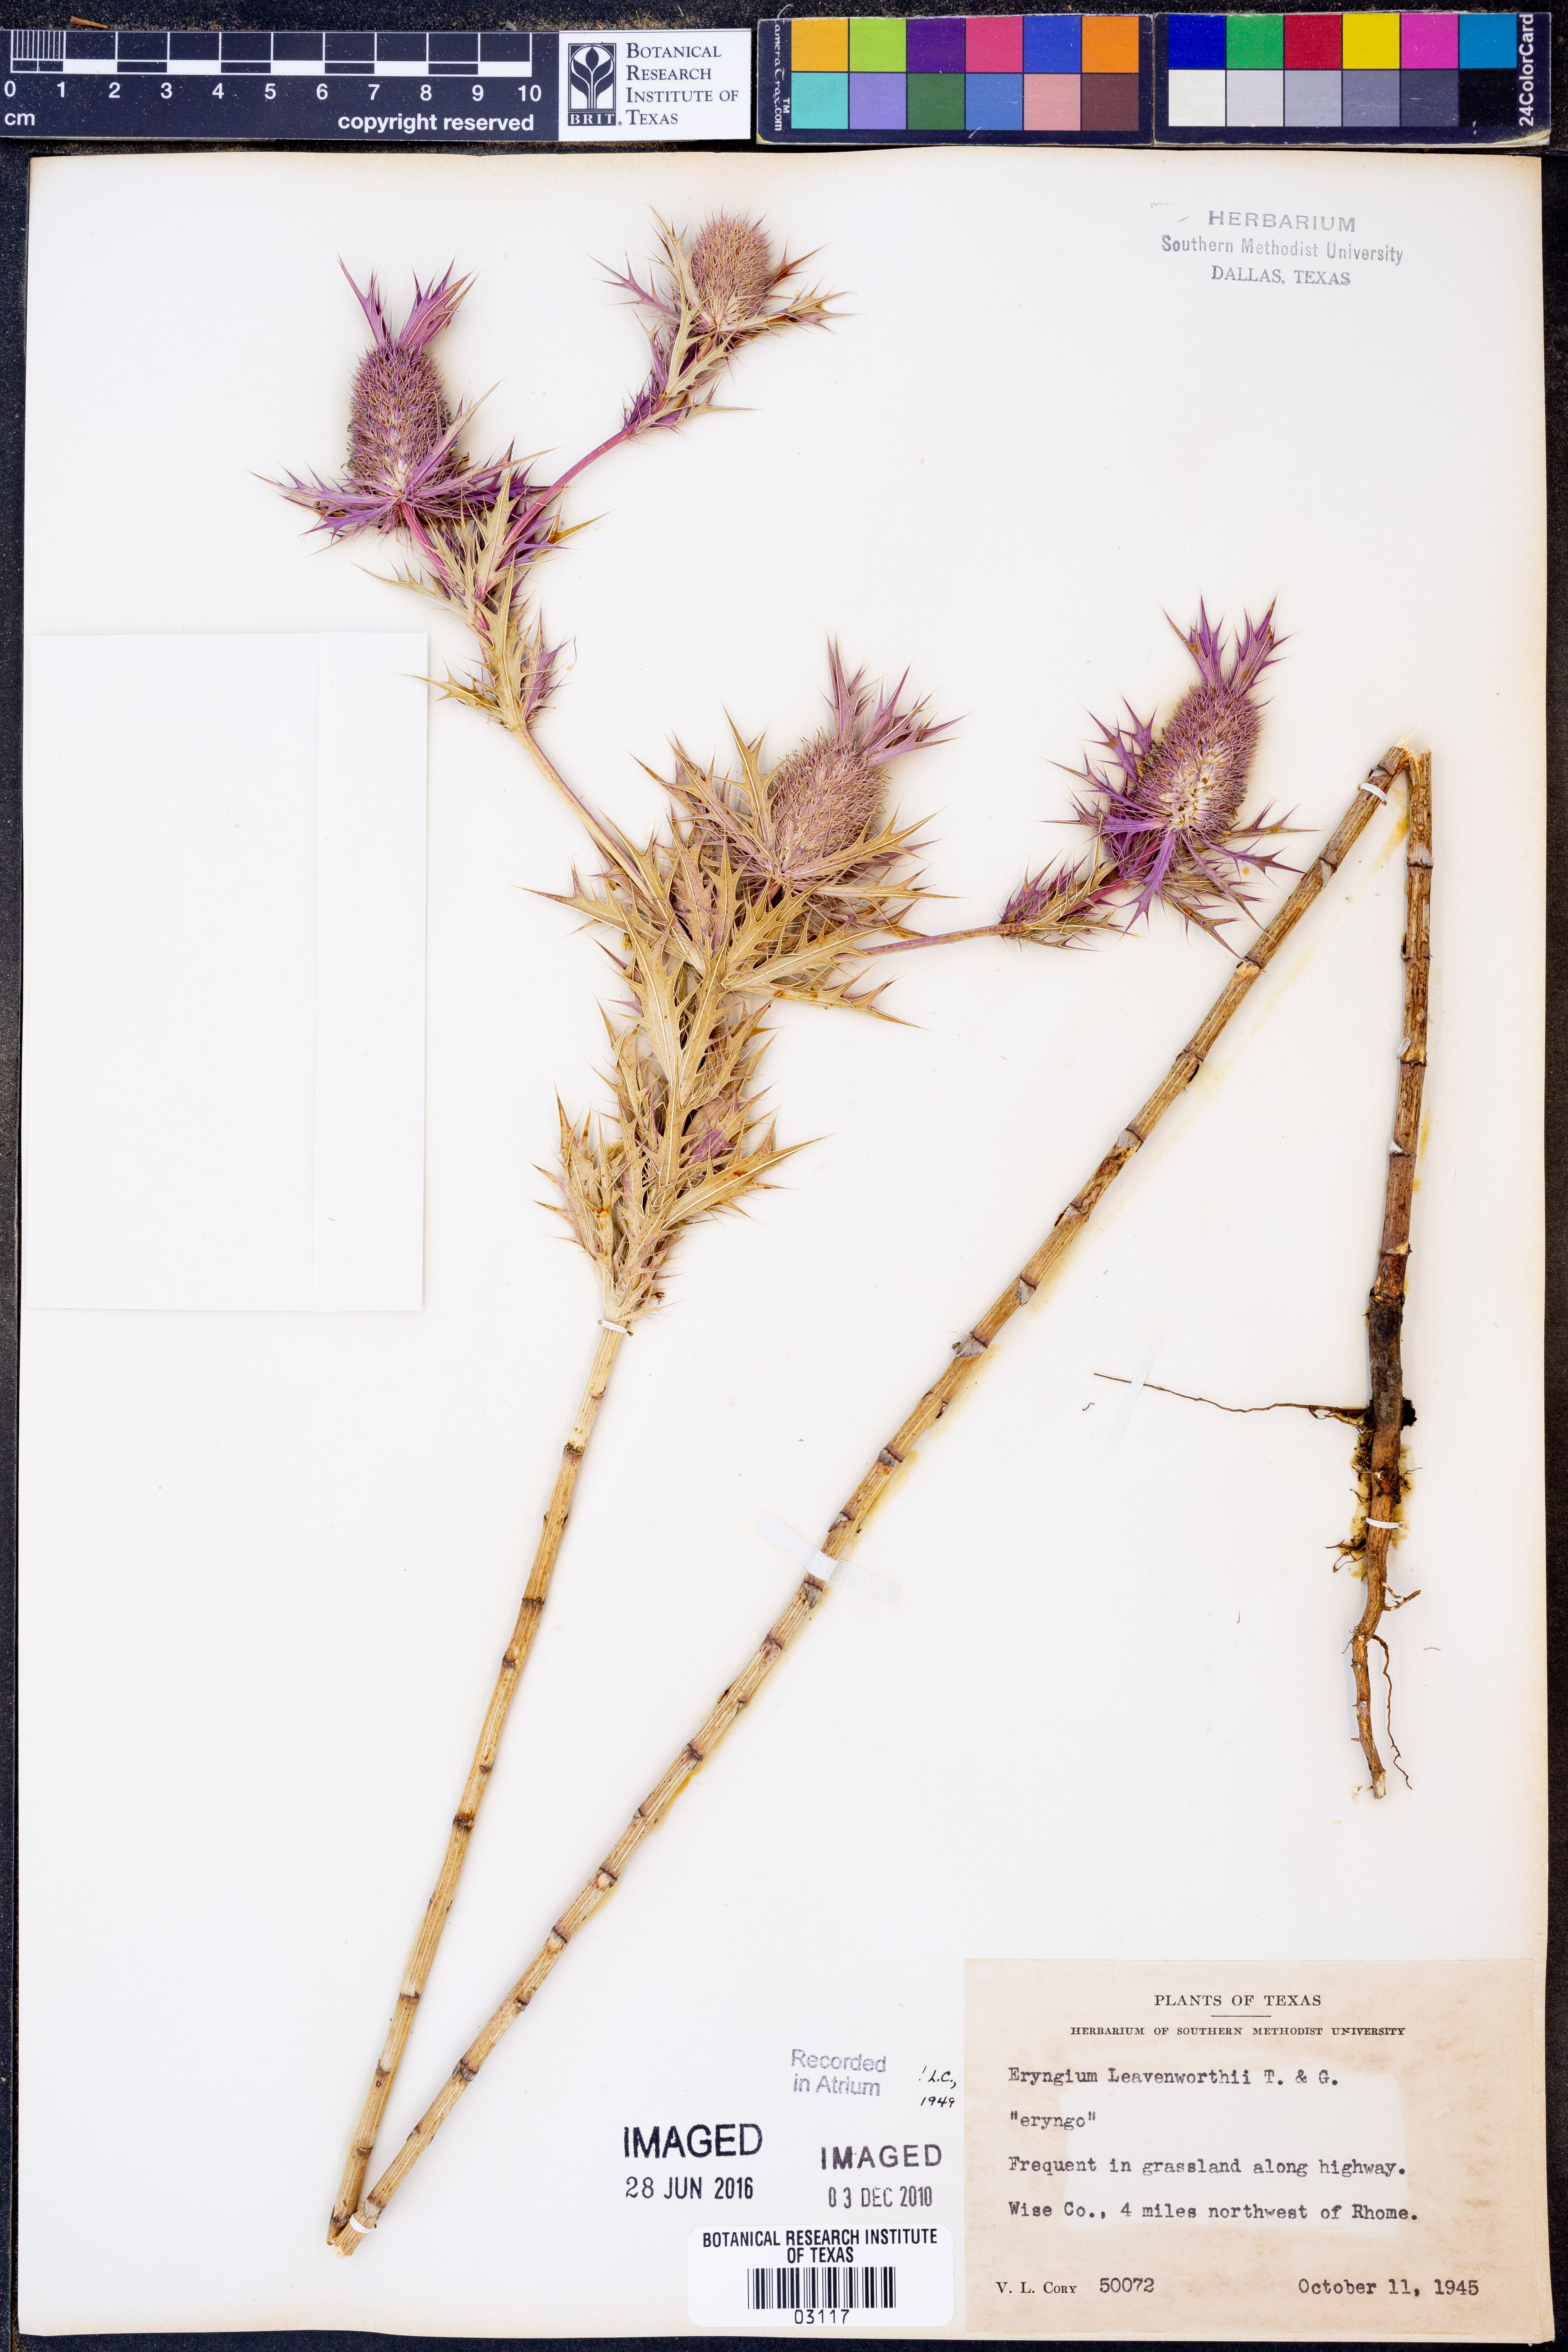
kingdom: Plantae
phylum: Tracheophyta
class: Magnoliopsida
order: Apiales
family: Apiaceae
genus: Eryngium
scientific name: Eryngium leavenworthii
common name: Leavenworth's eryngo
